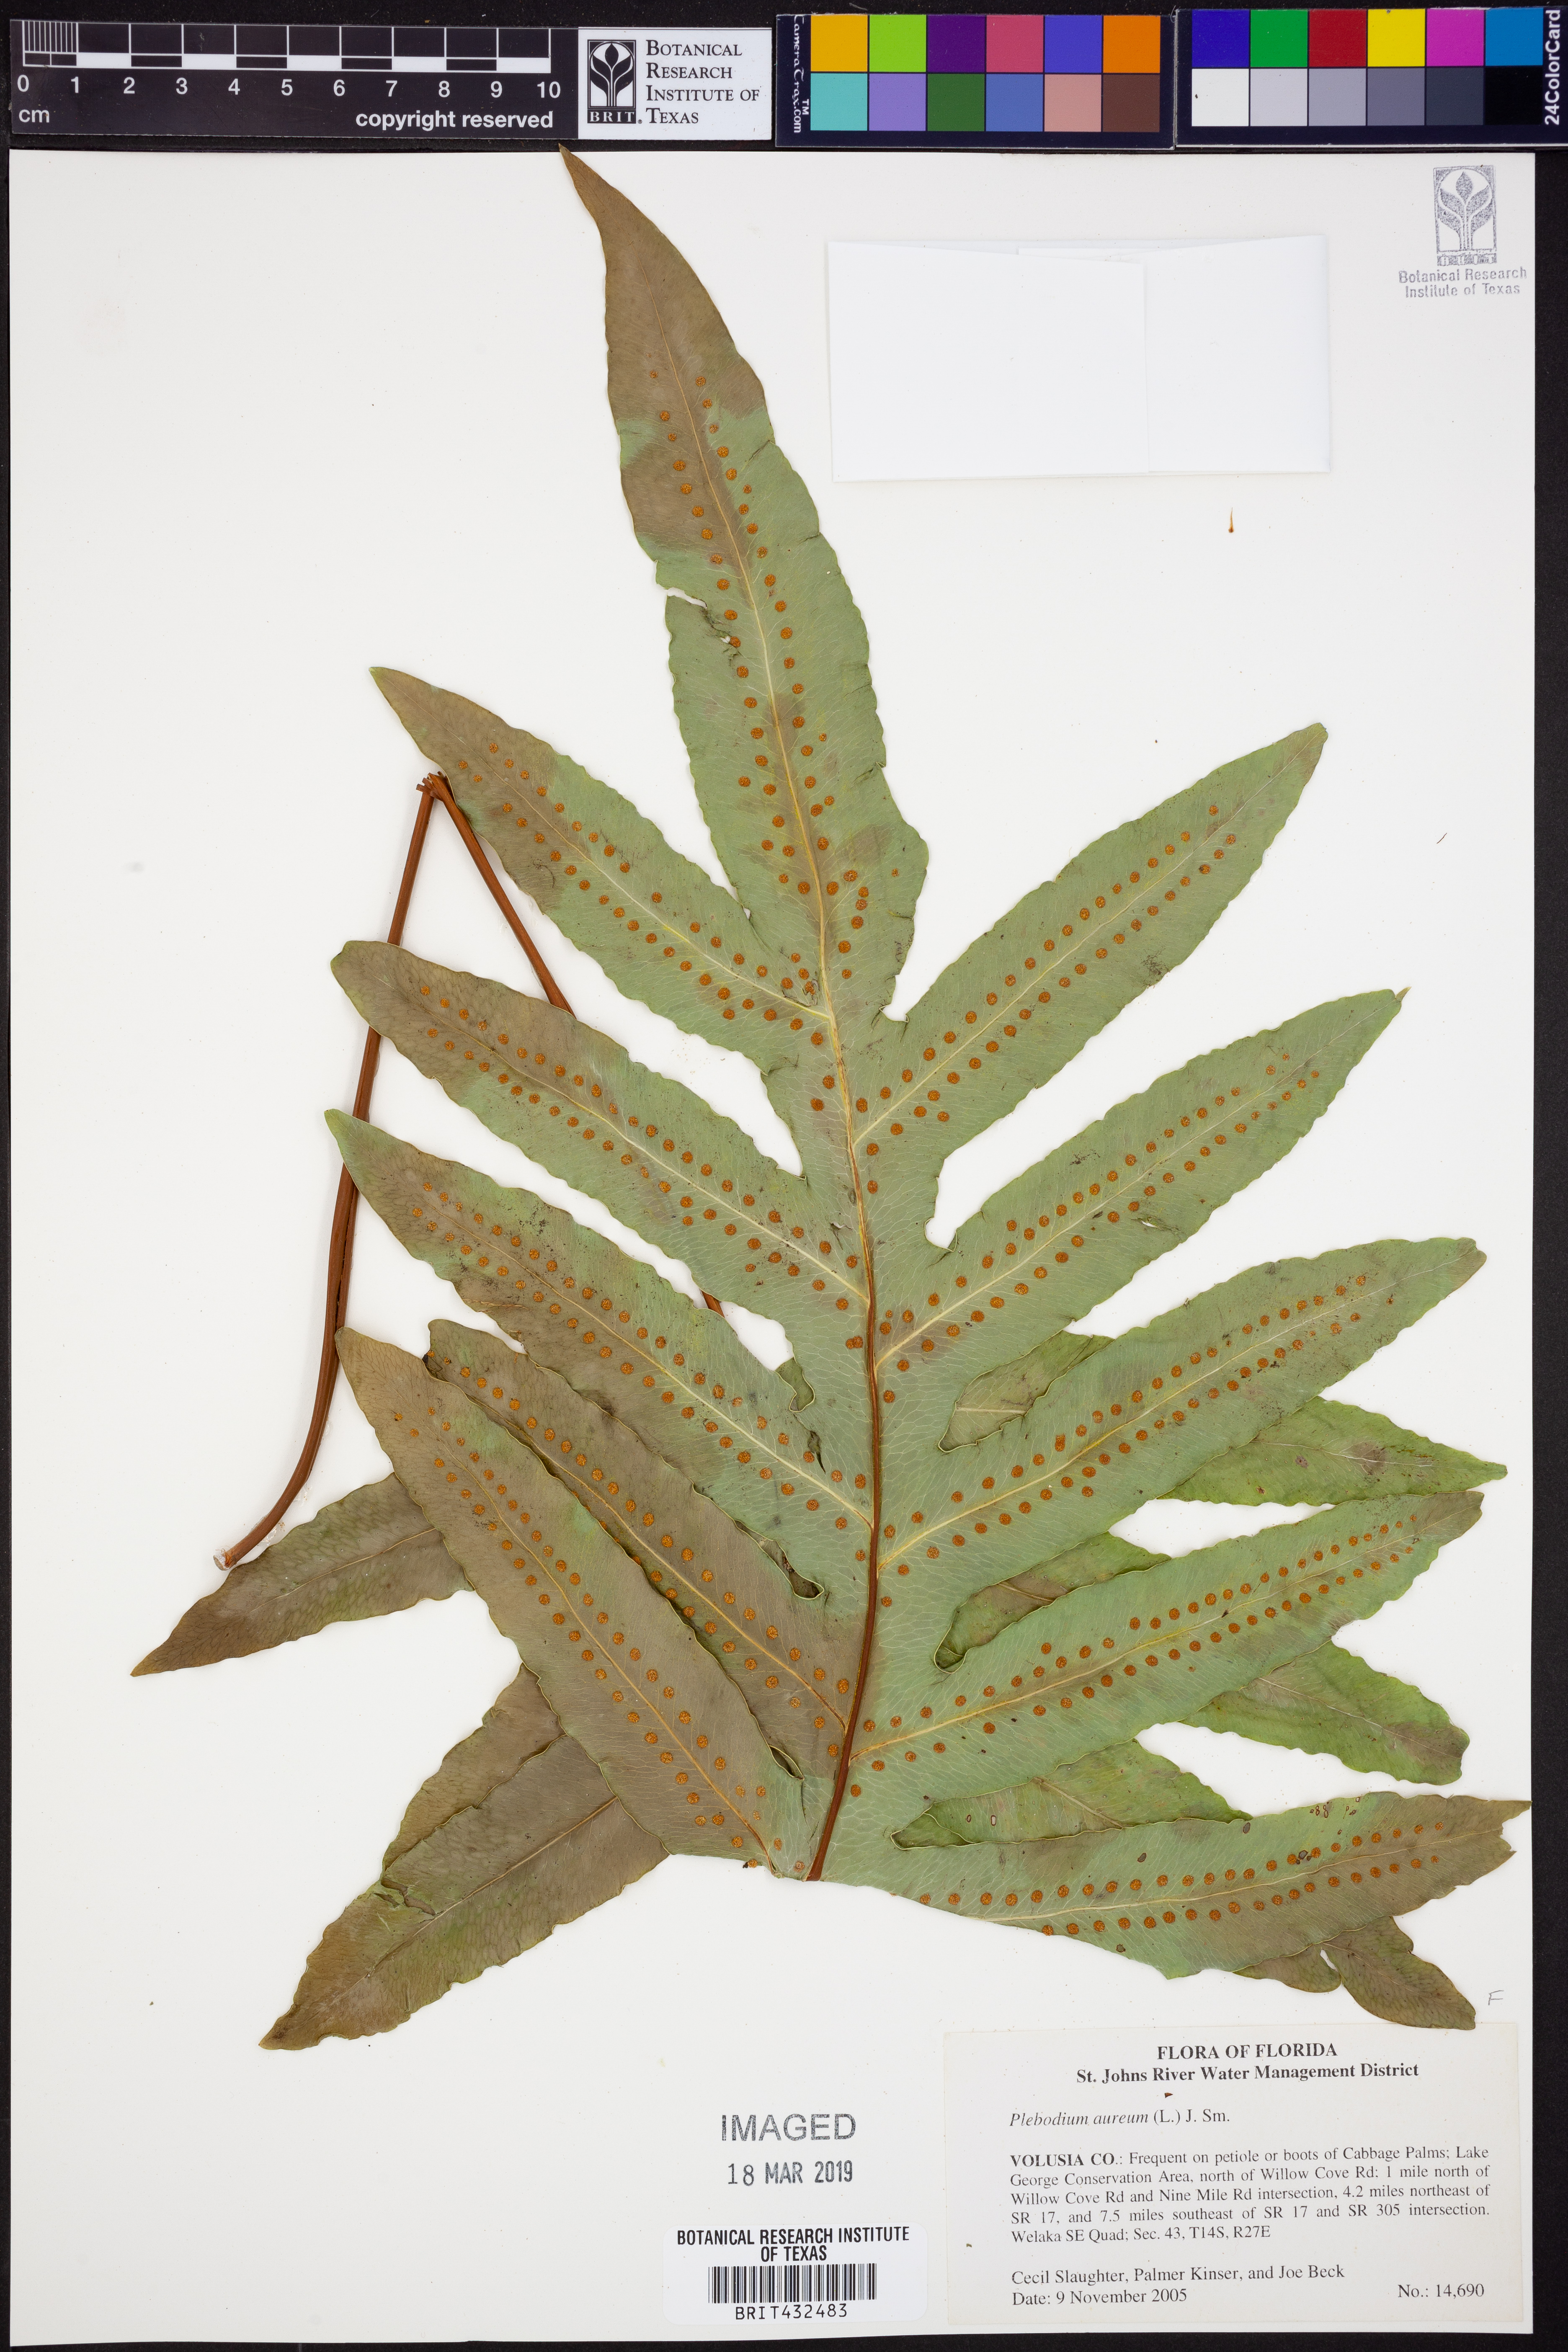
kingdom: Plantae
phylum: Tracheophyta
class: Polypodiopsida
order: Polypodiales
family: Polypodiaceae
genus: Phlebodium
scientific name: Phlebodium aureum
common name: Gold-foot fern
